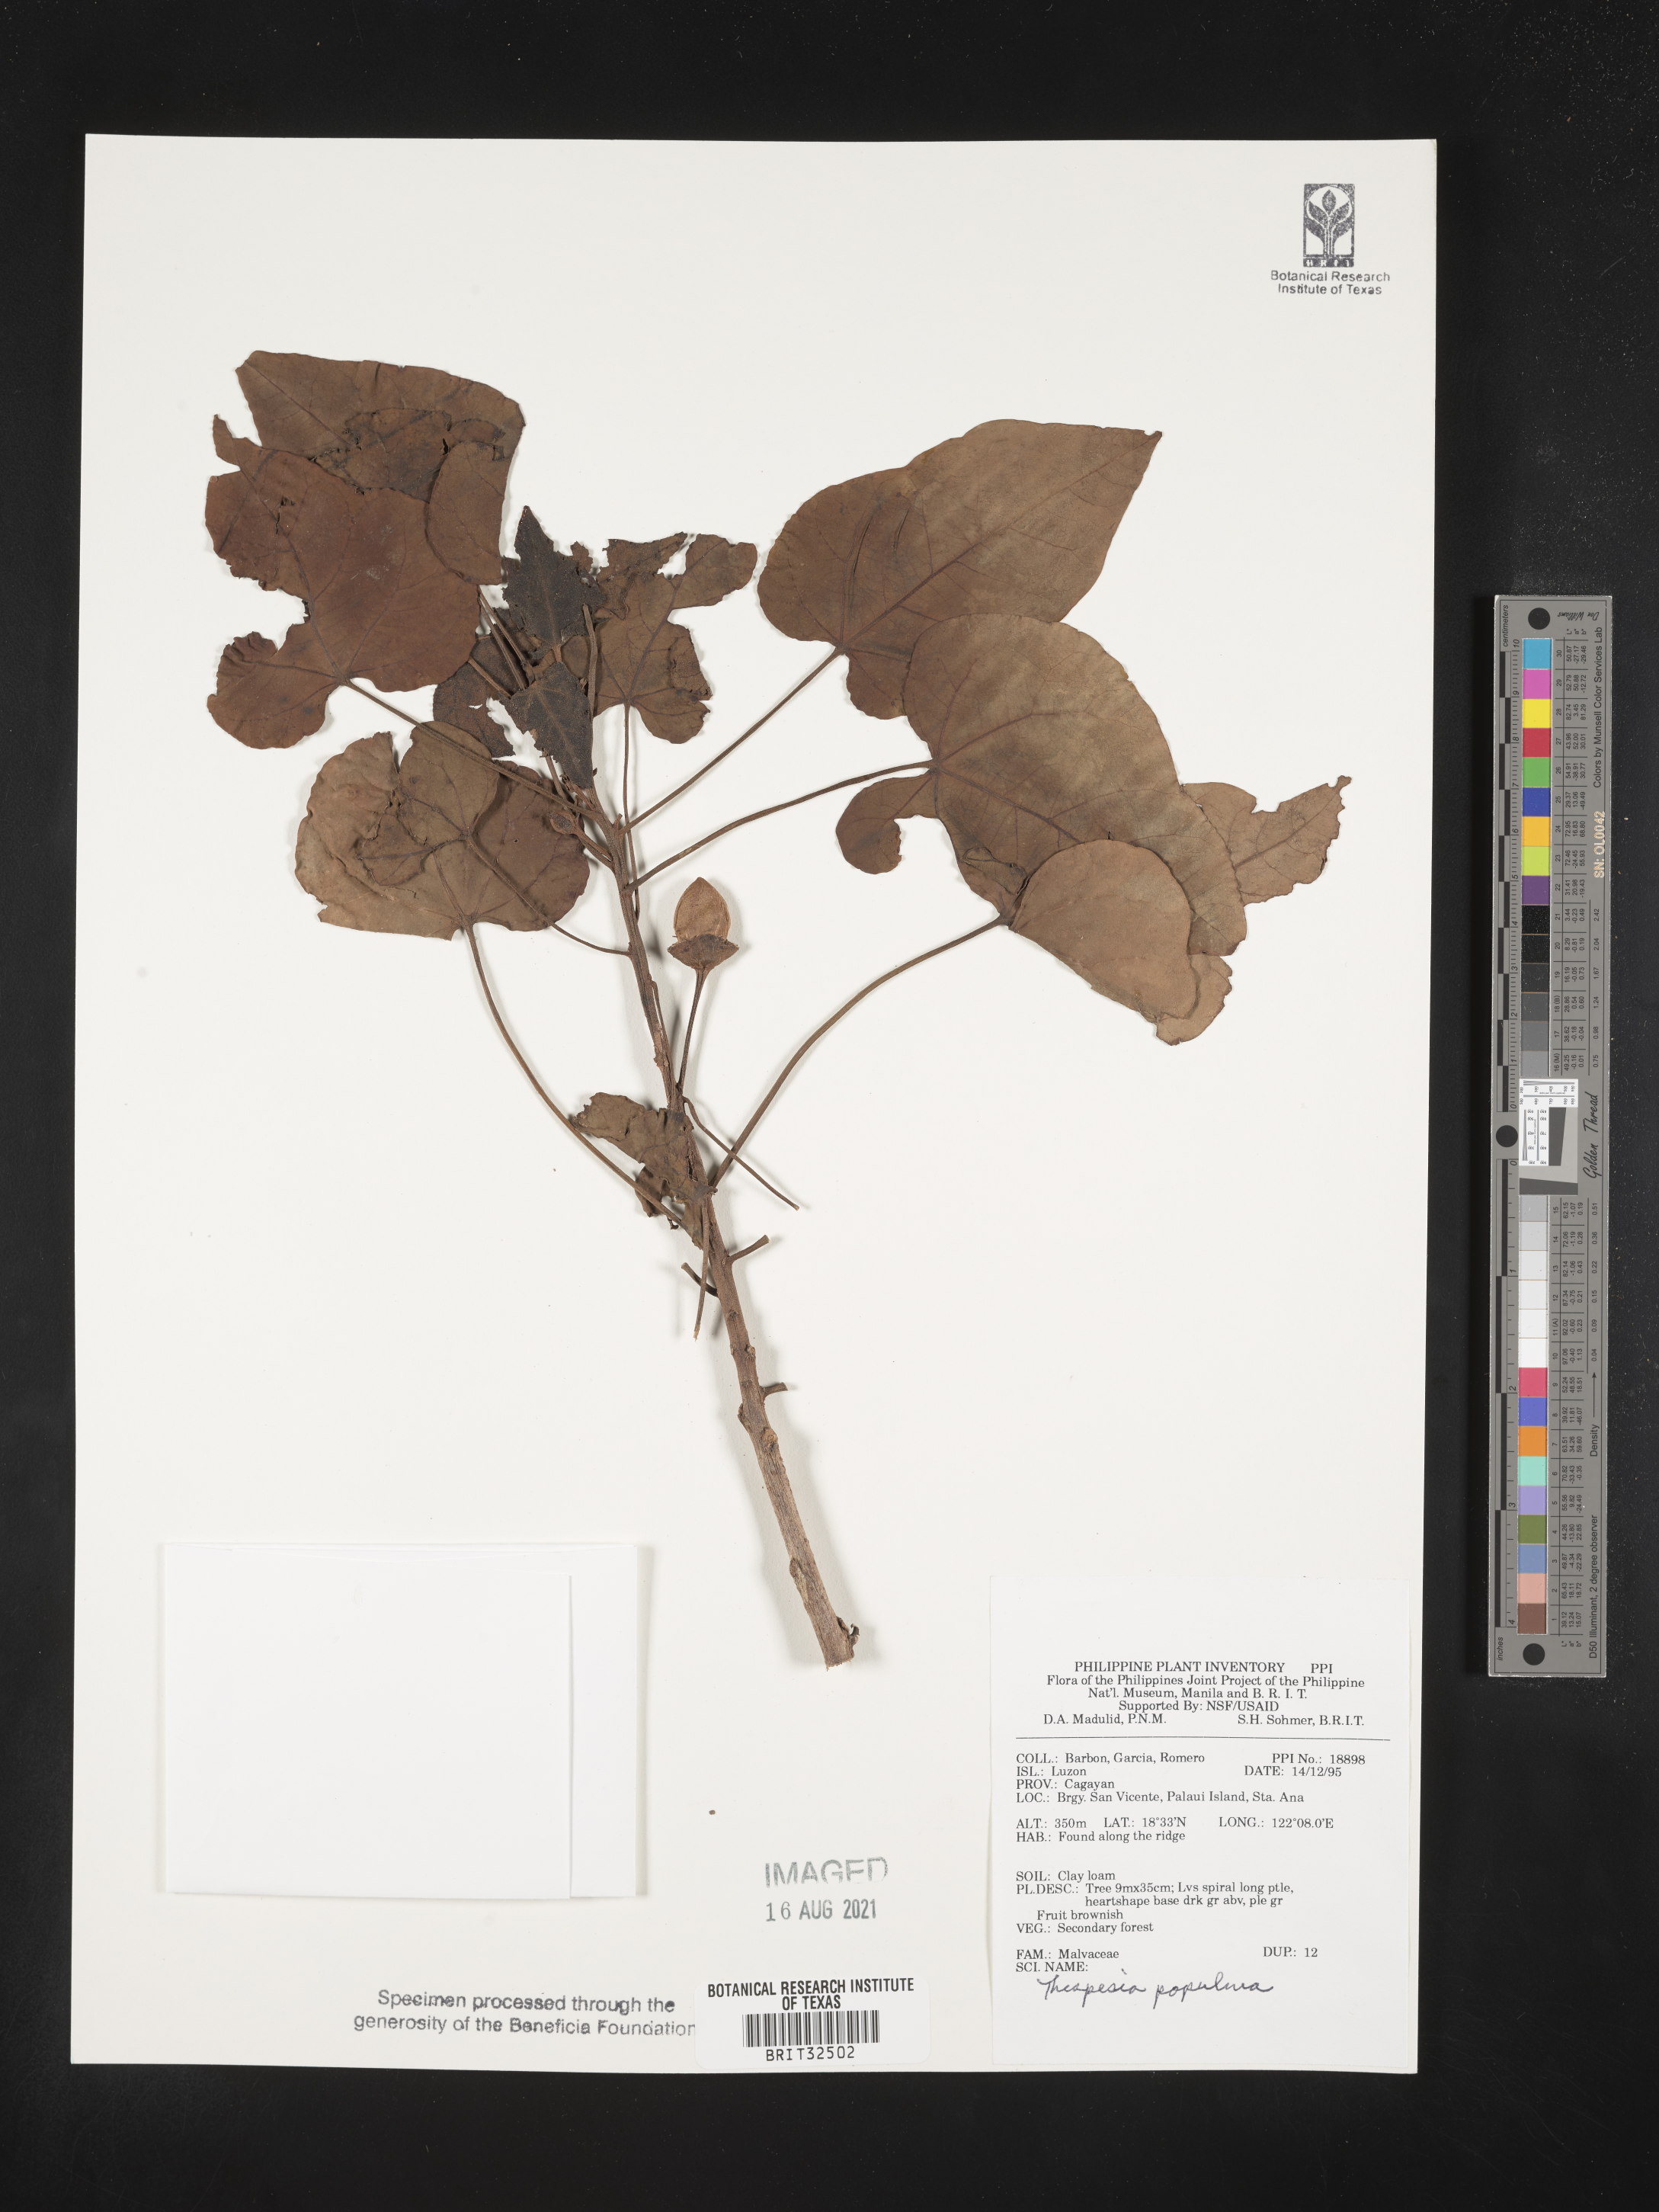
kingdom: Plantae
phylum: Tracheophyta
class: Magnoliopsida
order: Malvales
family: Malvaceae
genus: Thespesia
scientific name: Thespesia populnea
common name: Seaside mahoe
